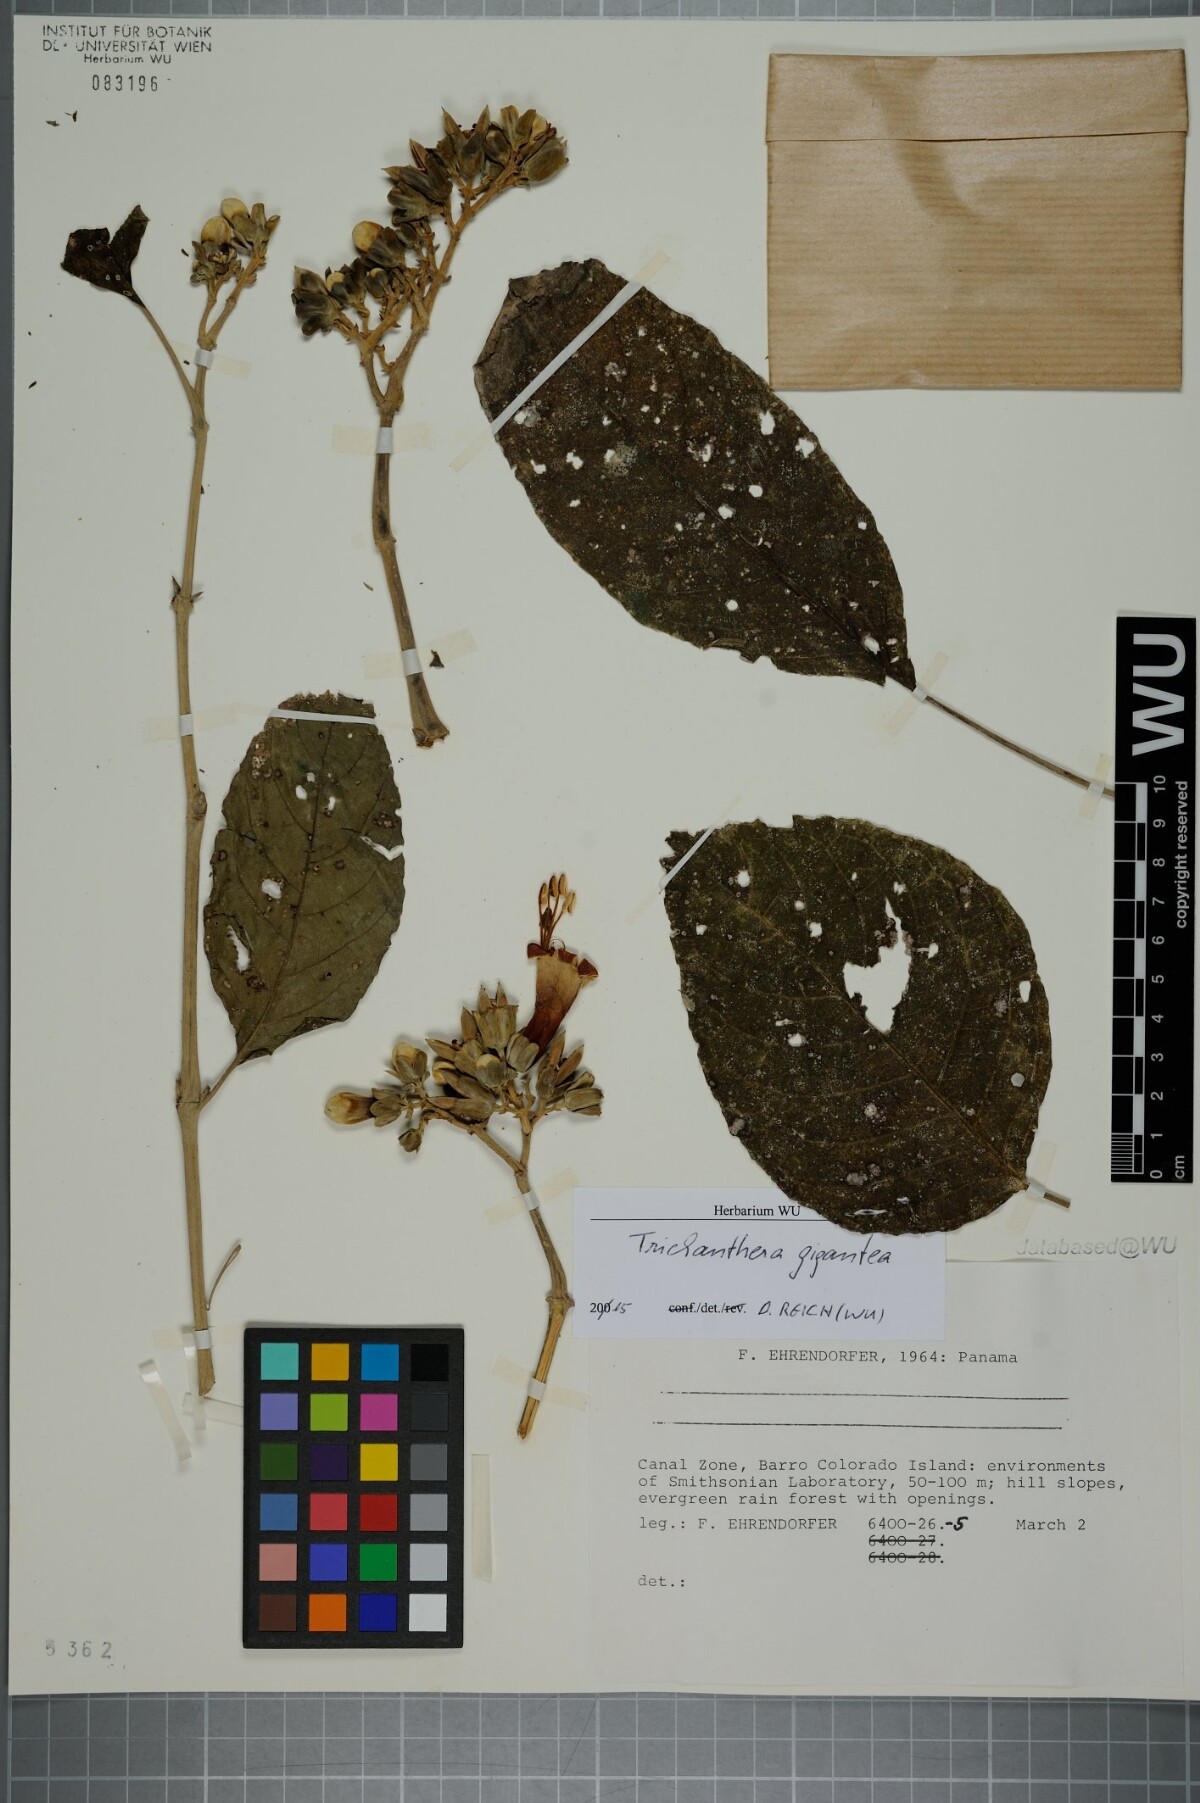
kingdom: Plantae
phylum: Tracheophyta
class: Magnoliopsida
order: Lamiales
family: Acanthaceae
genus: Trichanthera
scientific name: Trichanthera gigantea
